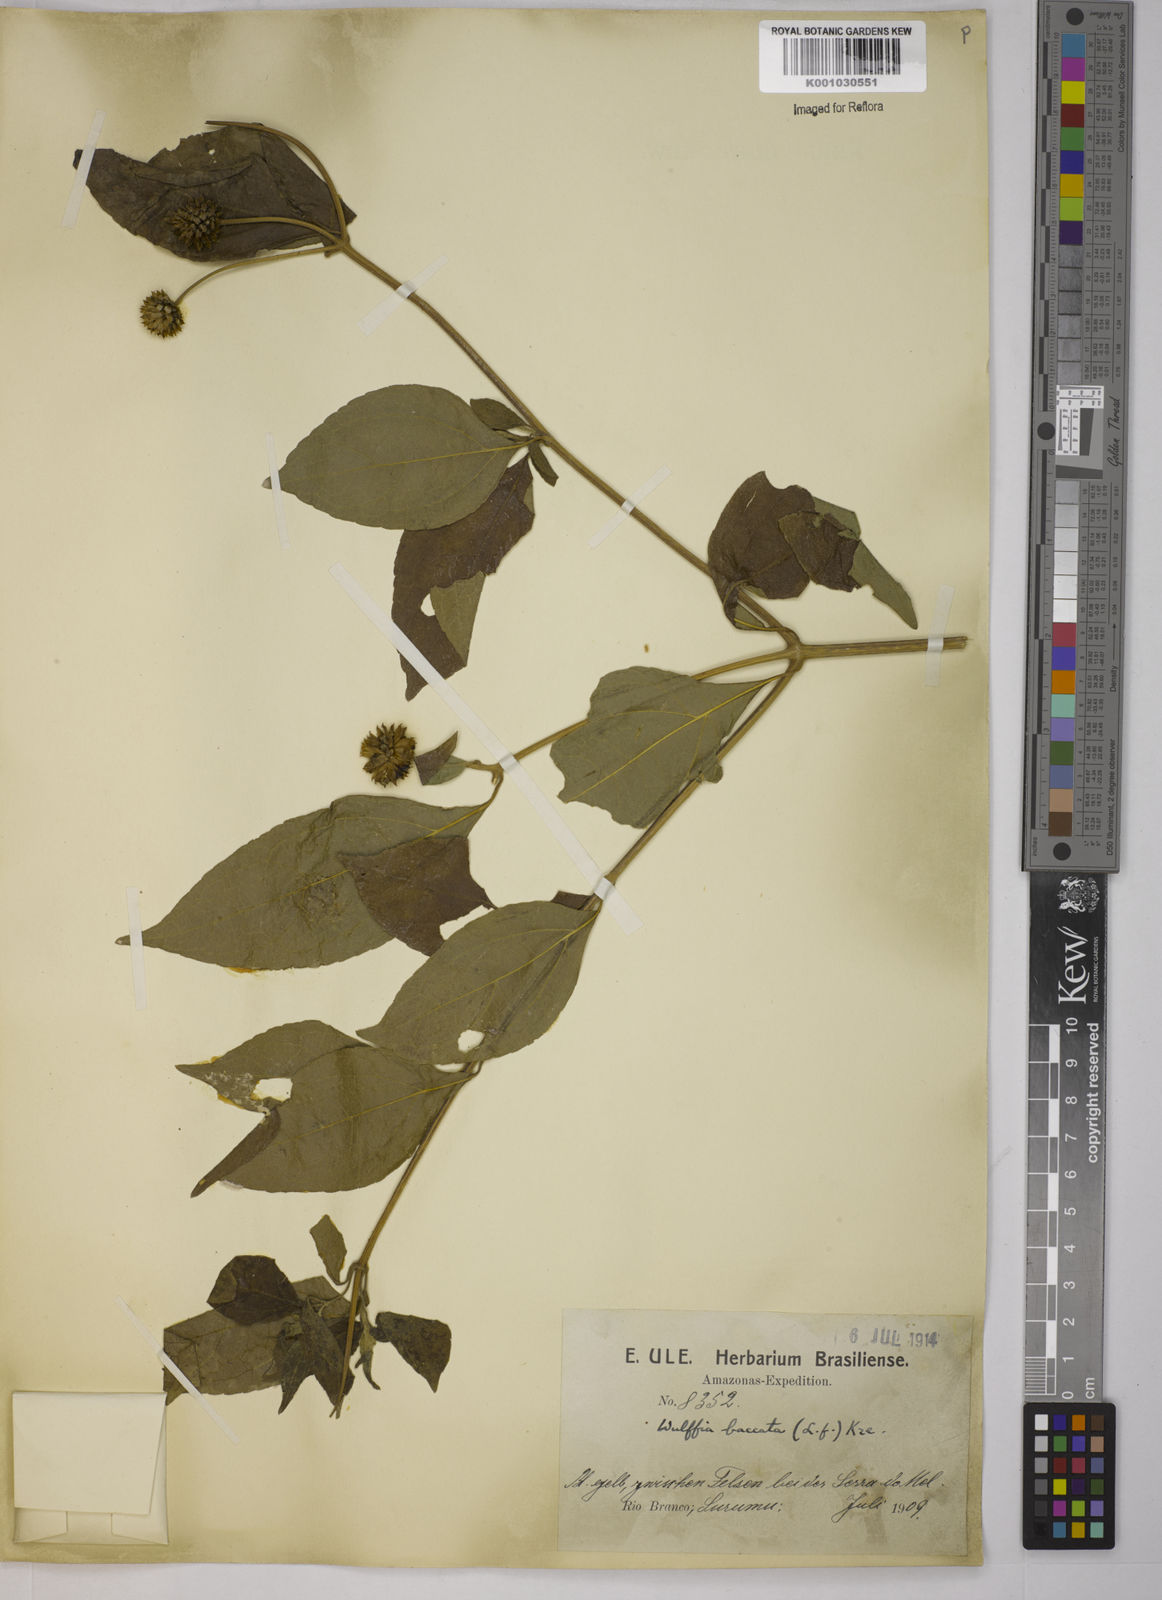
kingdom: Plantae
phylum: Tracheophyta
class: Magnoliopsida
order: Asterales
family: Asteraceae
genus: Tilesia
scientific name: Tilesia baccata
